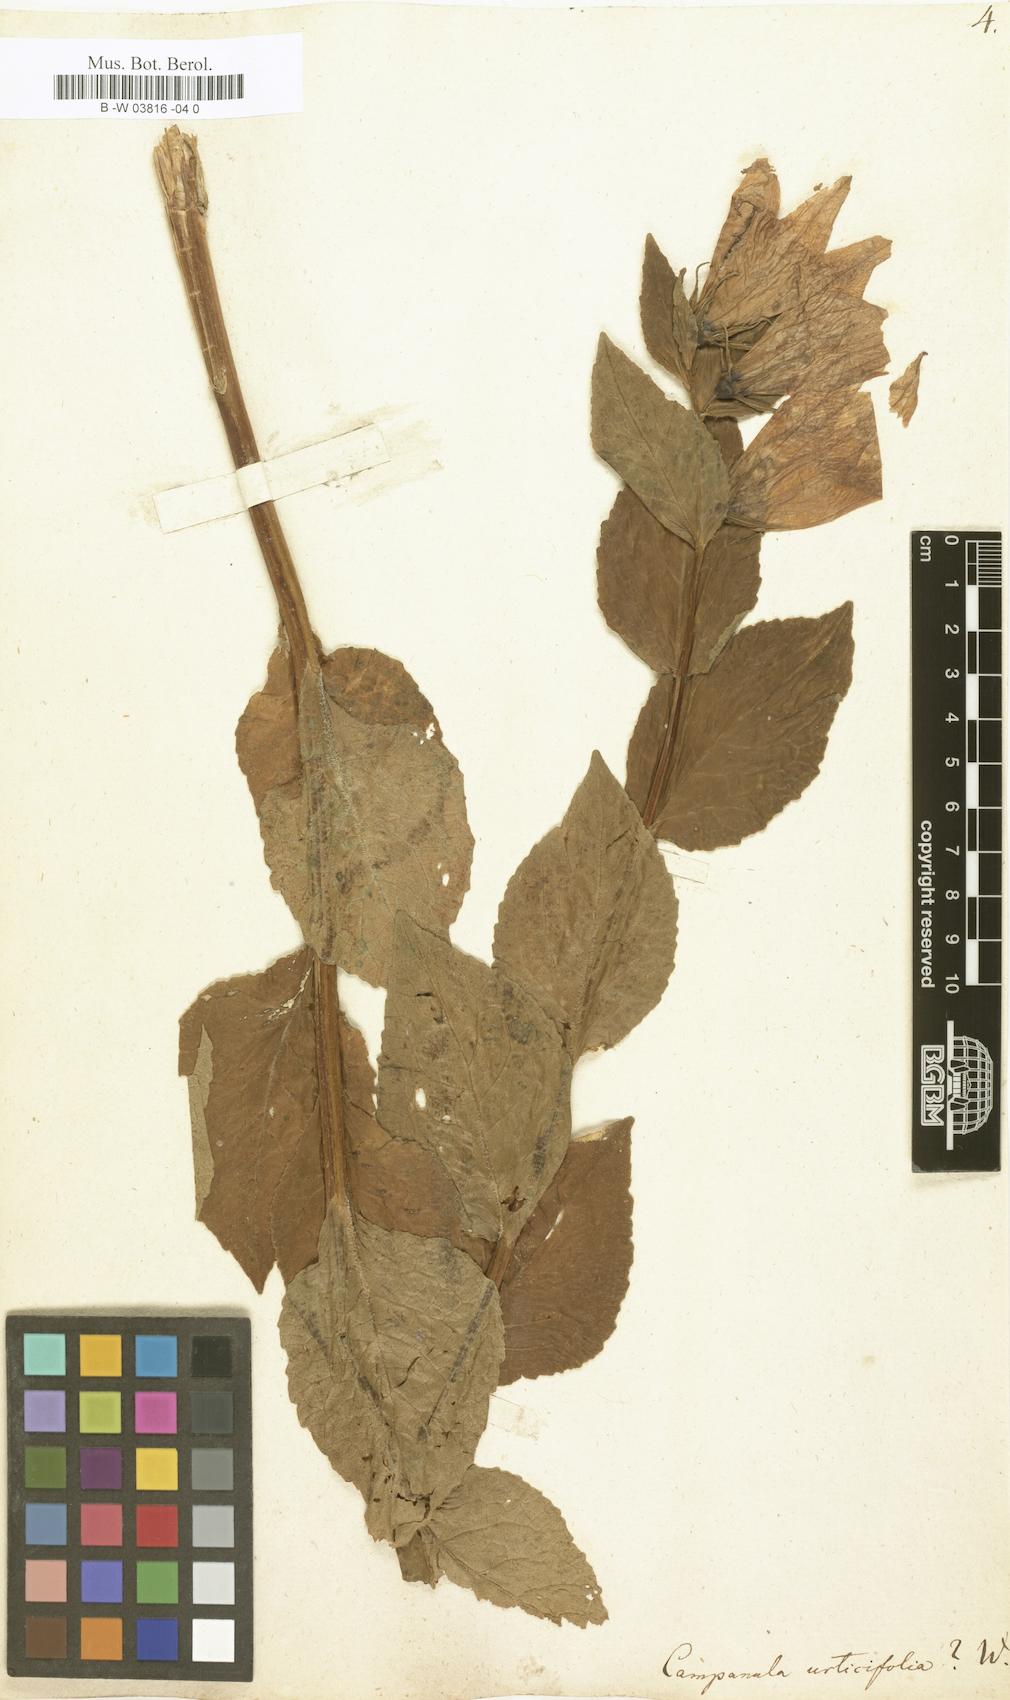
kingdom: Plantae
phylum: Tracheophyta
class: Magnoliopsida
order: Asterales
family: Campanulaceae
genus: Campanula
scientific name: Campanula urticifolia
